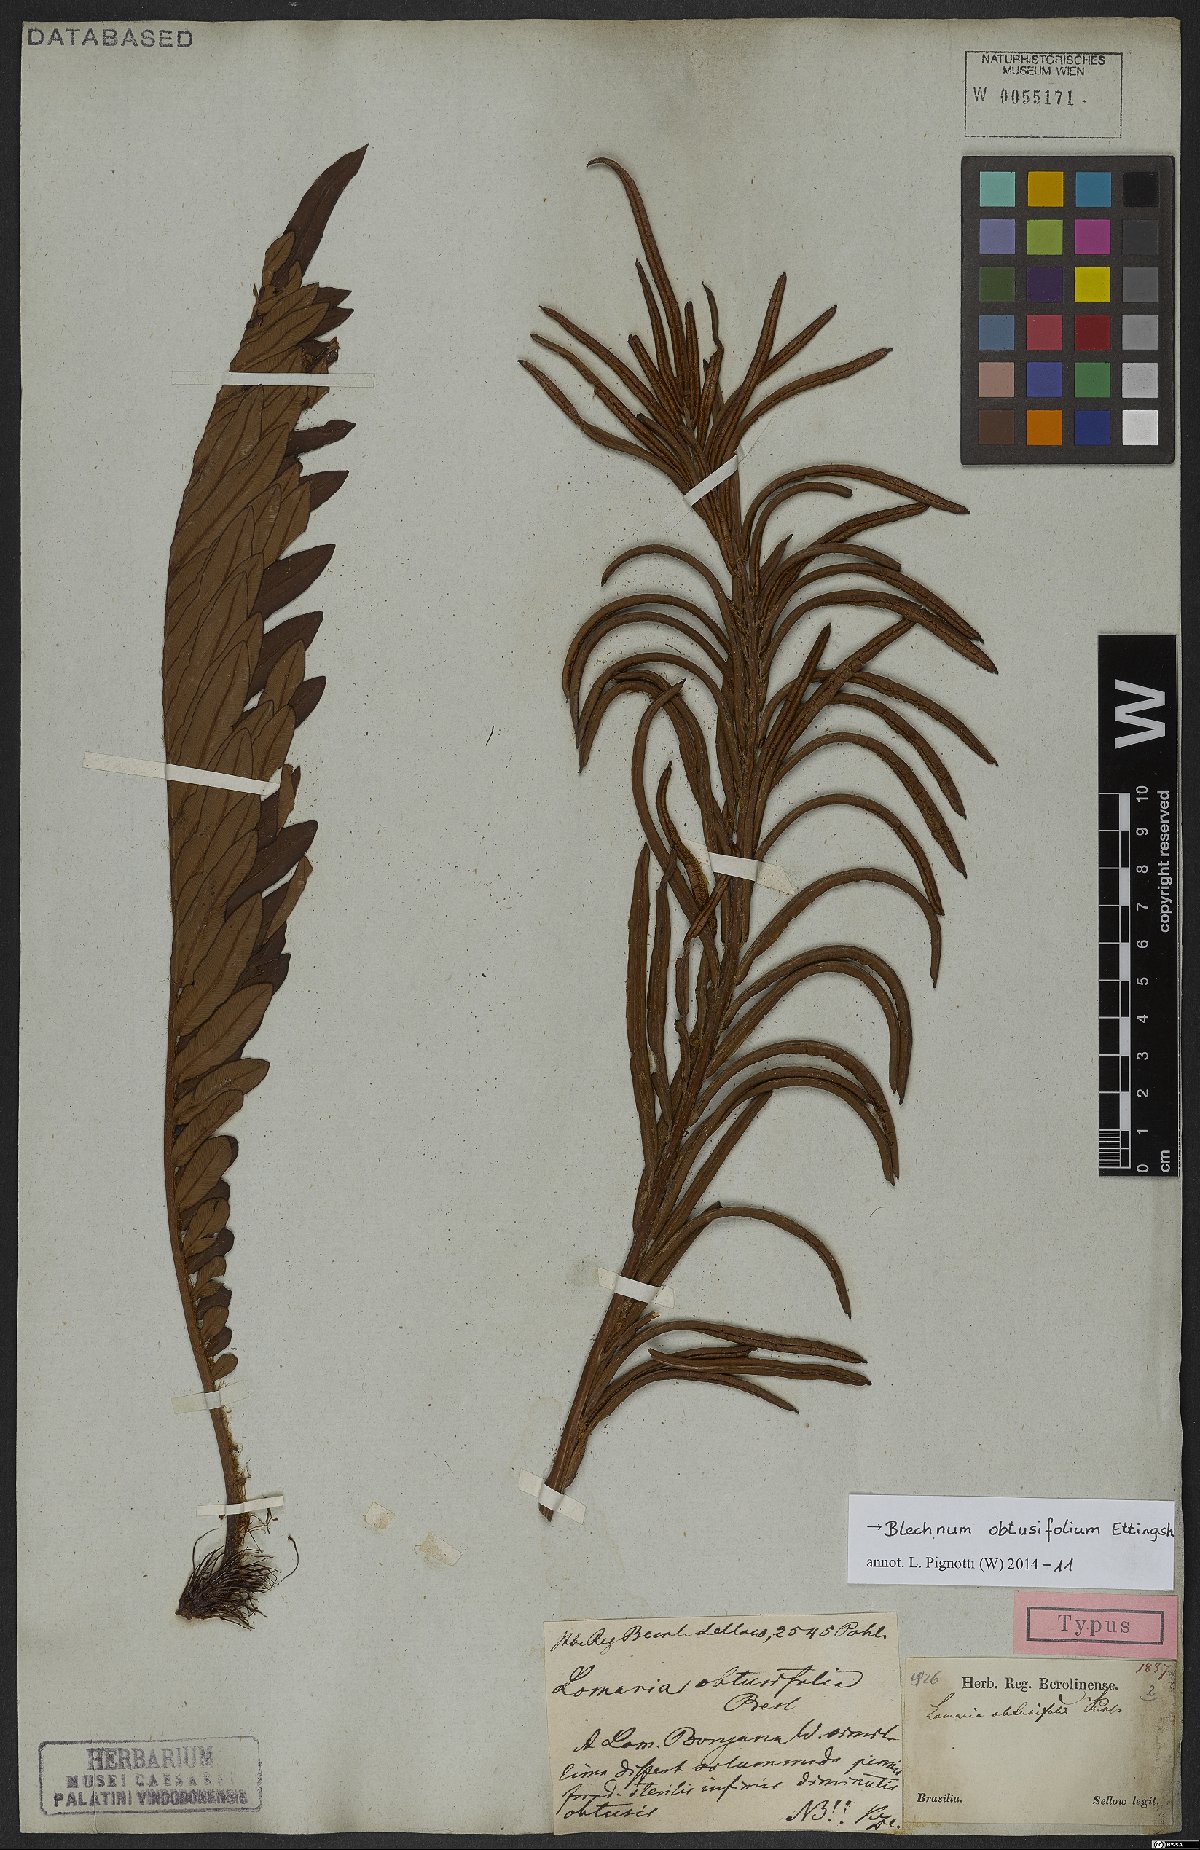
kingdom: Plantae
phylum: Tracheophyta
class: Polypodiopsida
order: Polypodiales
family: Blechnaceae
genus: Lomariocycas
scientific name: Lomariocycas obtusifolia
